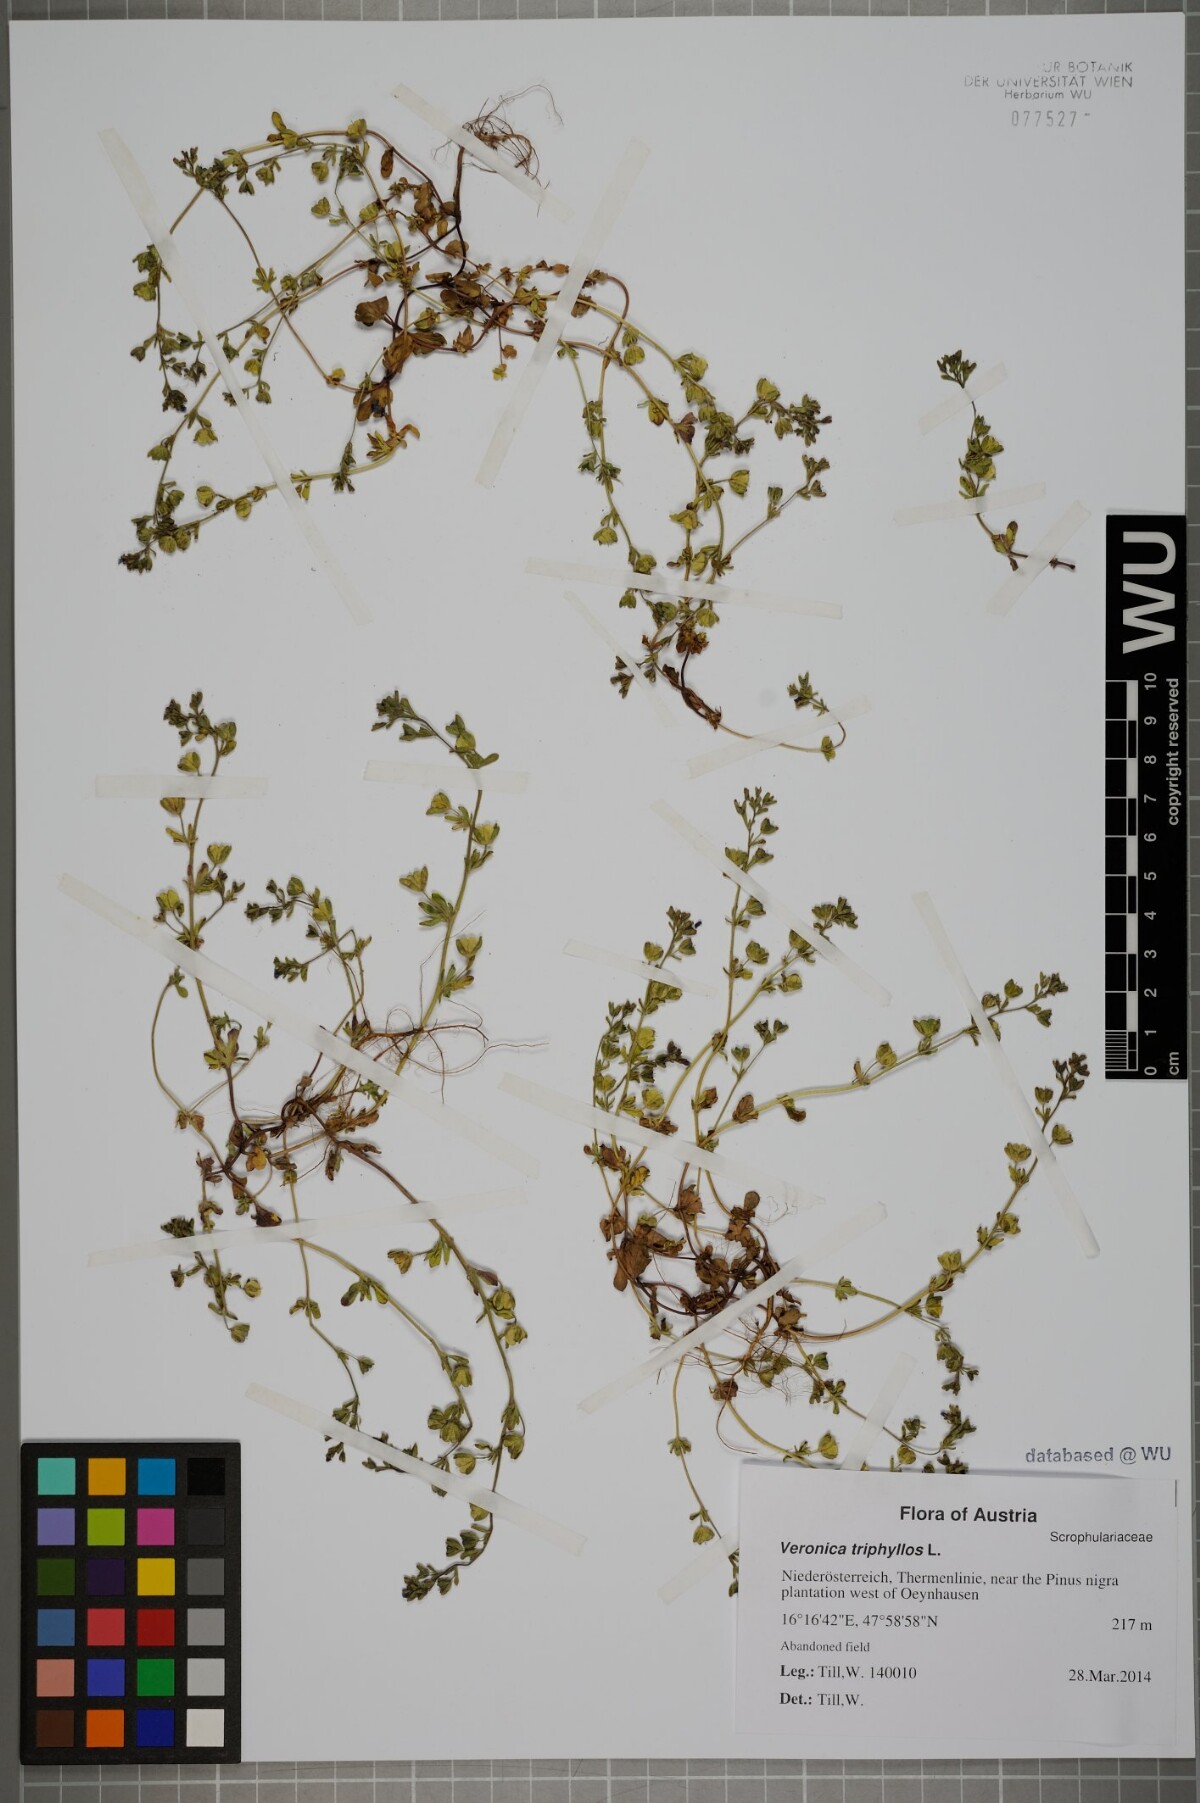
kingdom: Plantae
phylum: Tracheophyta
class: Magnoliopsida
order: Lamiales
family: Plantaginaceae
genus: Veronica
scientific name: Veronica triphyllos
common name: Fingered speedwell
